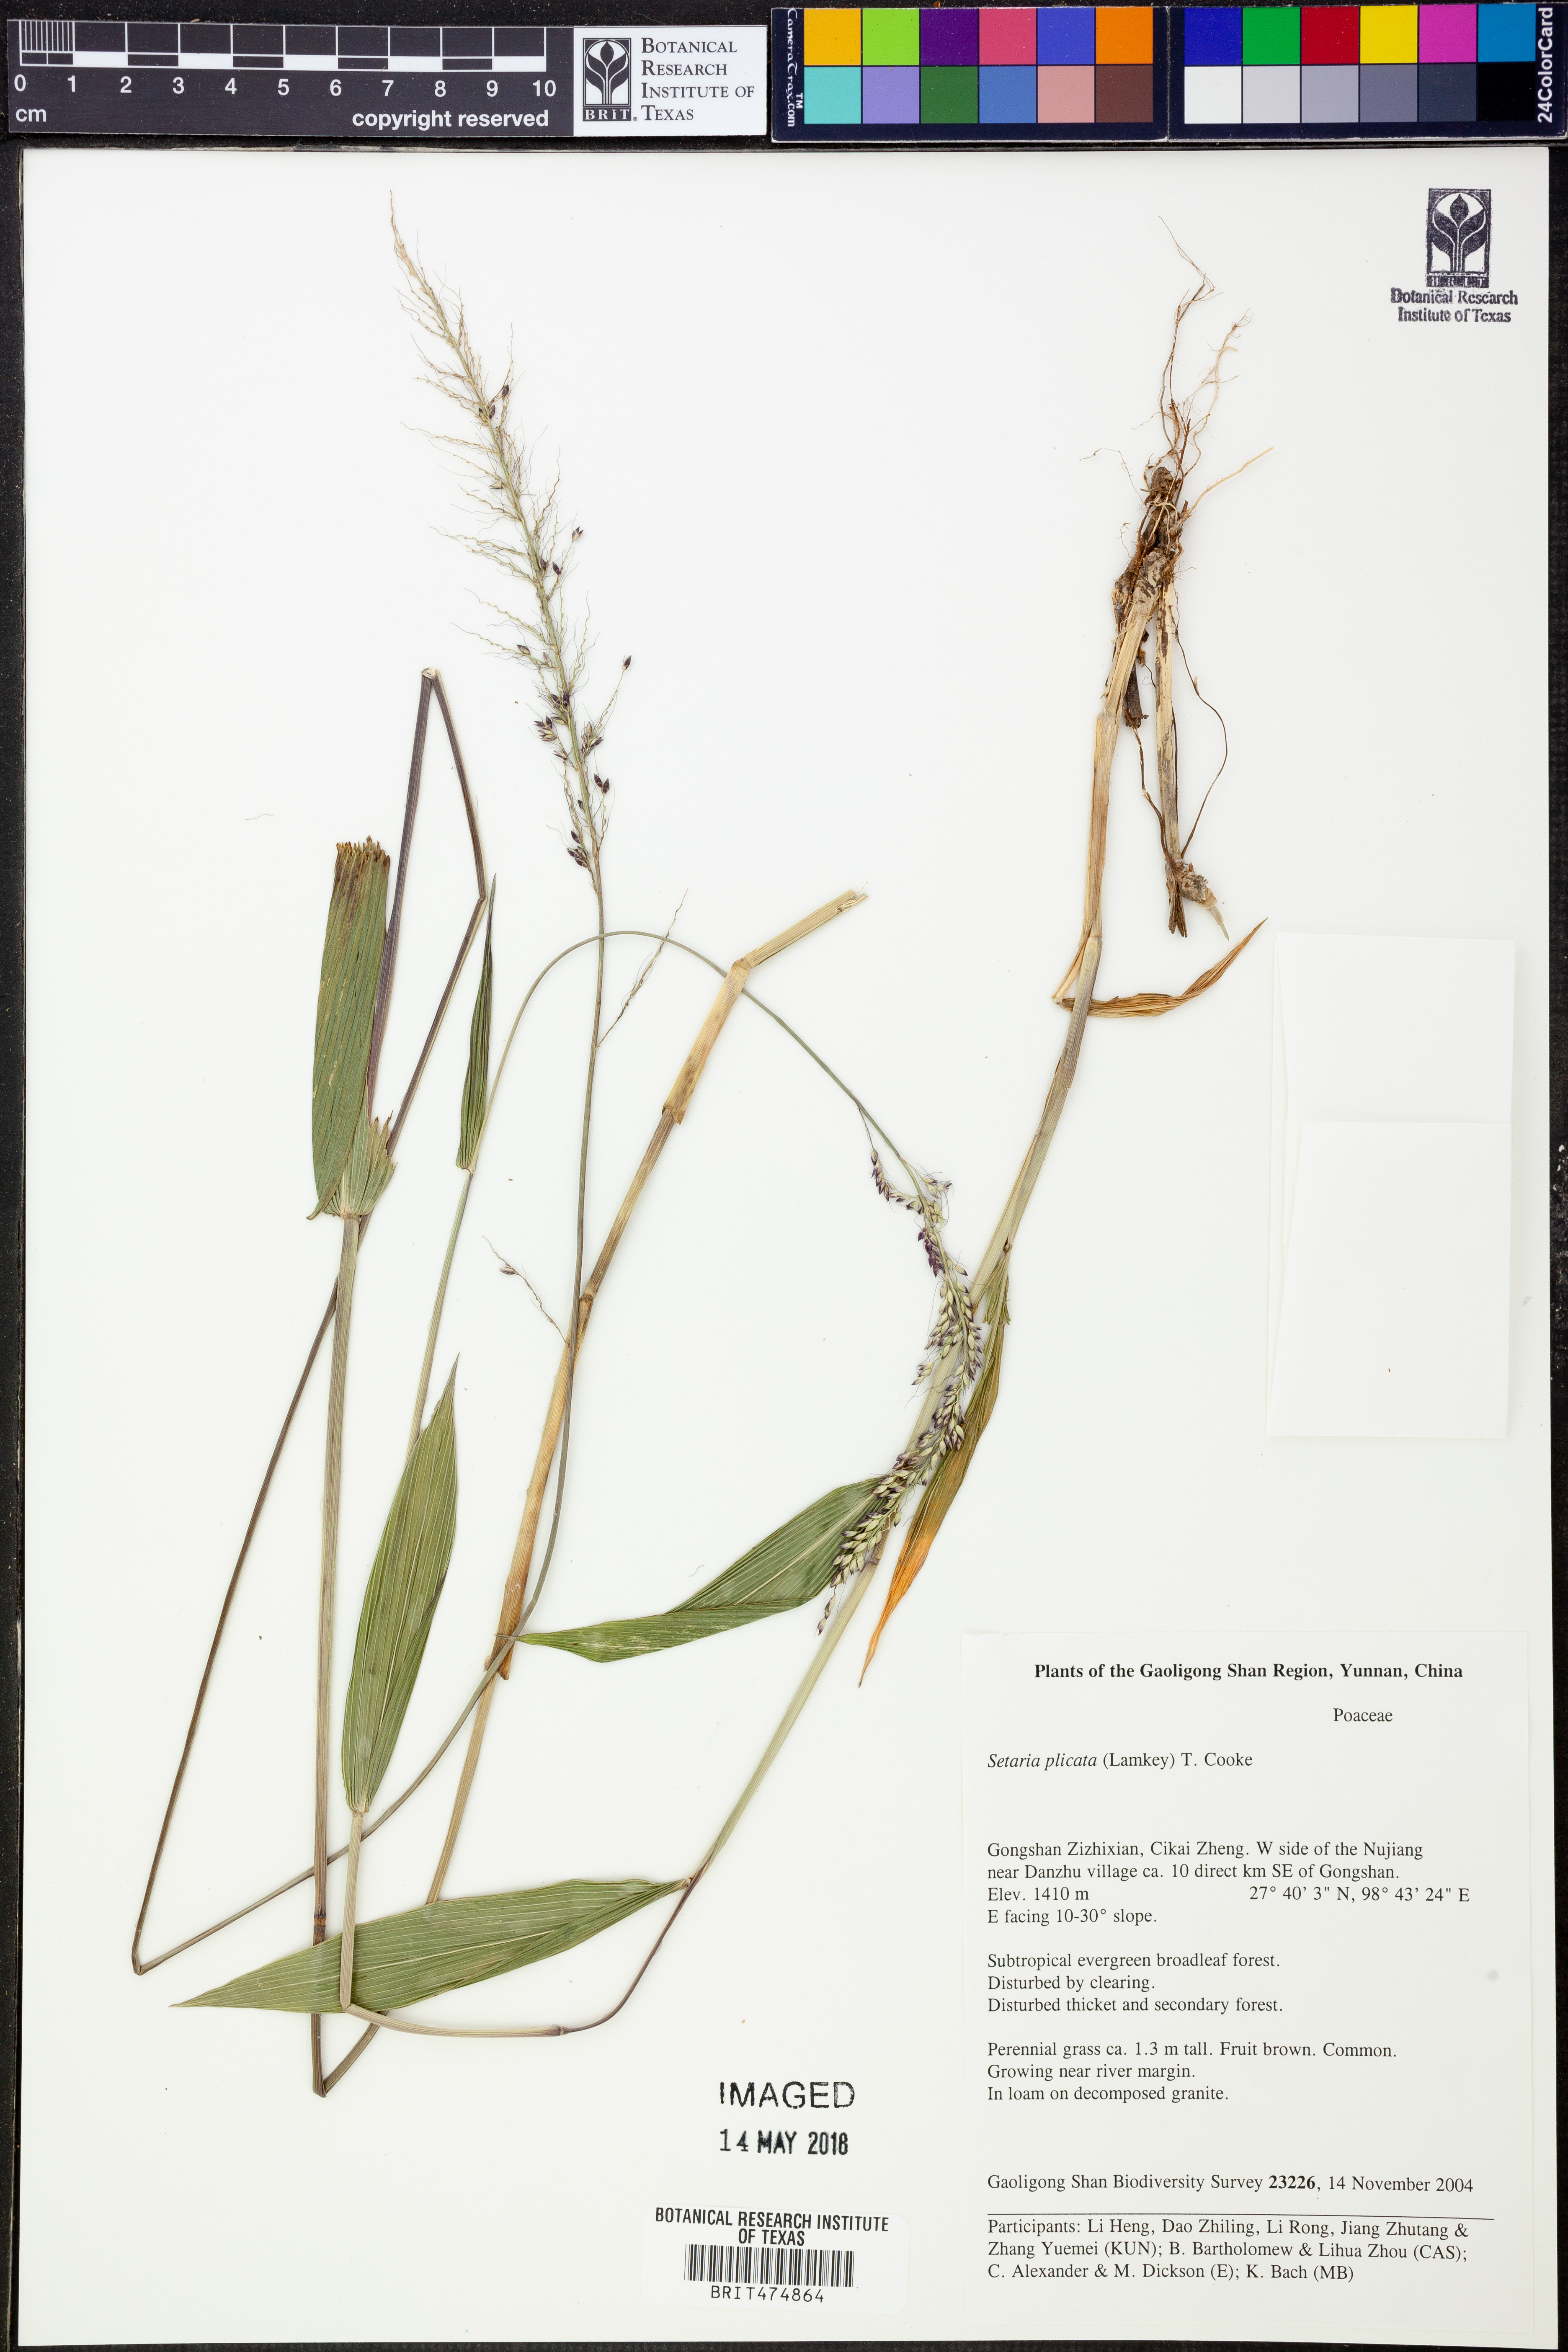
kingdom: Plantae
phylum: Tracheophyta
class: Liliopsida
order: Poales
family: Poaceae
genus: Setaria
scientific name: Setaria plicata
